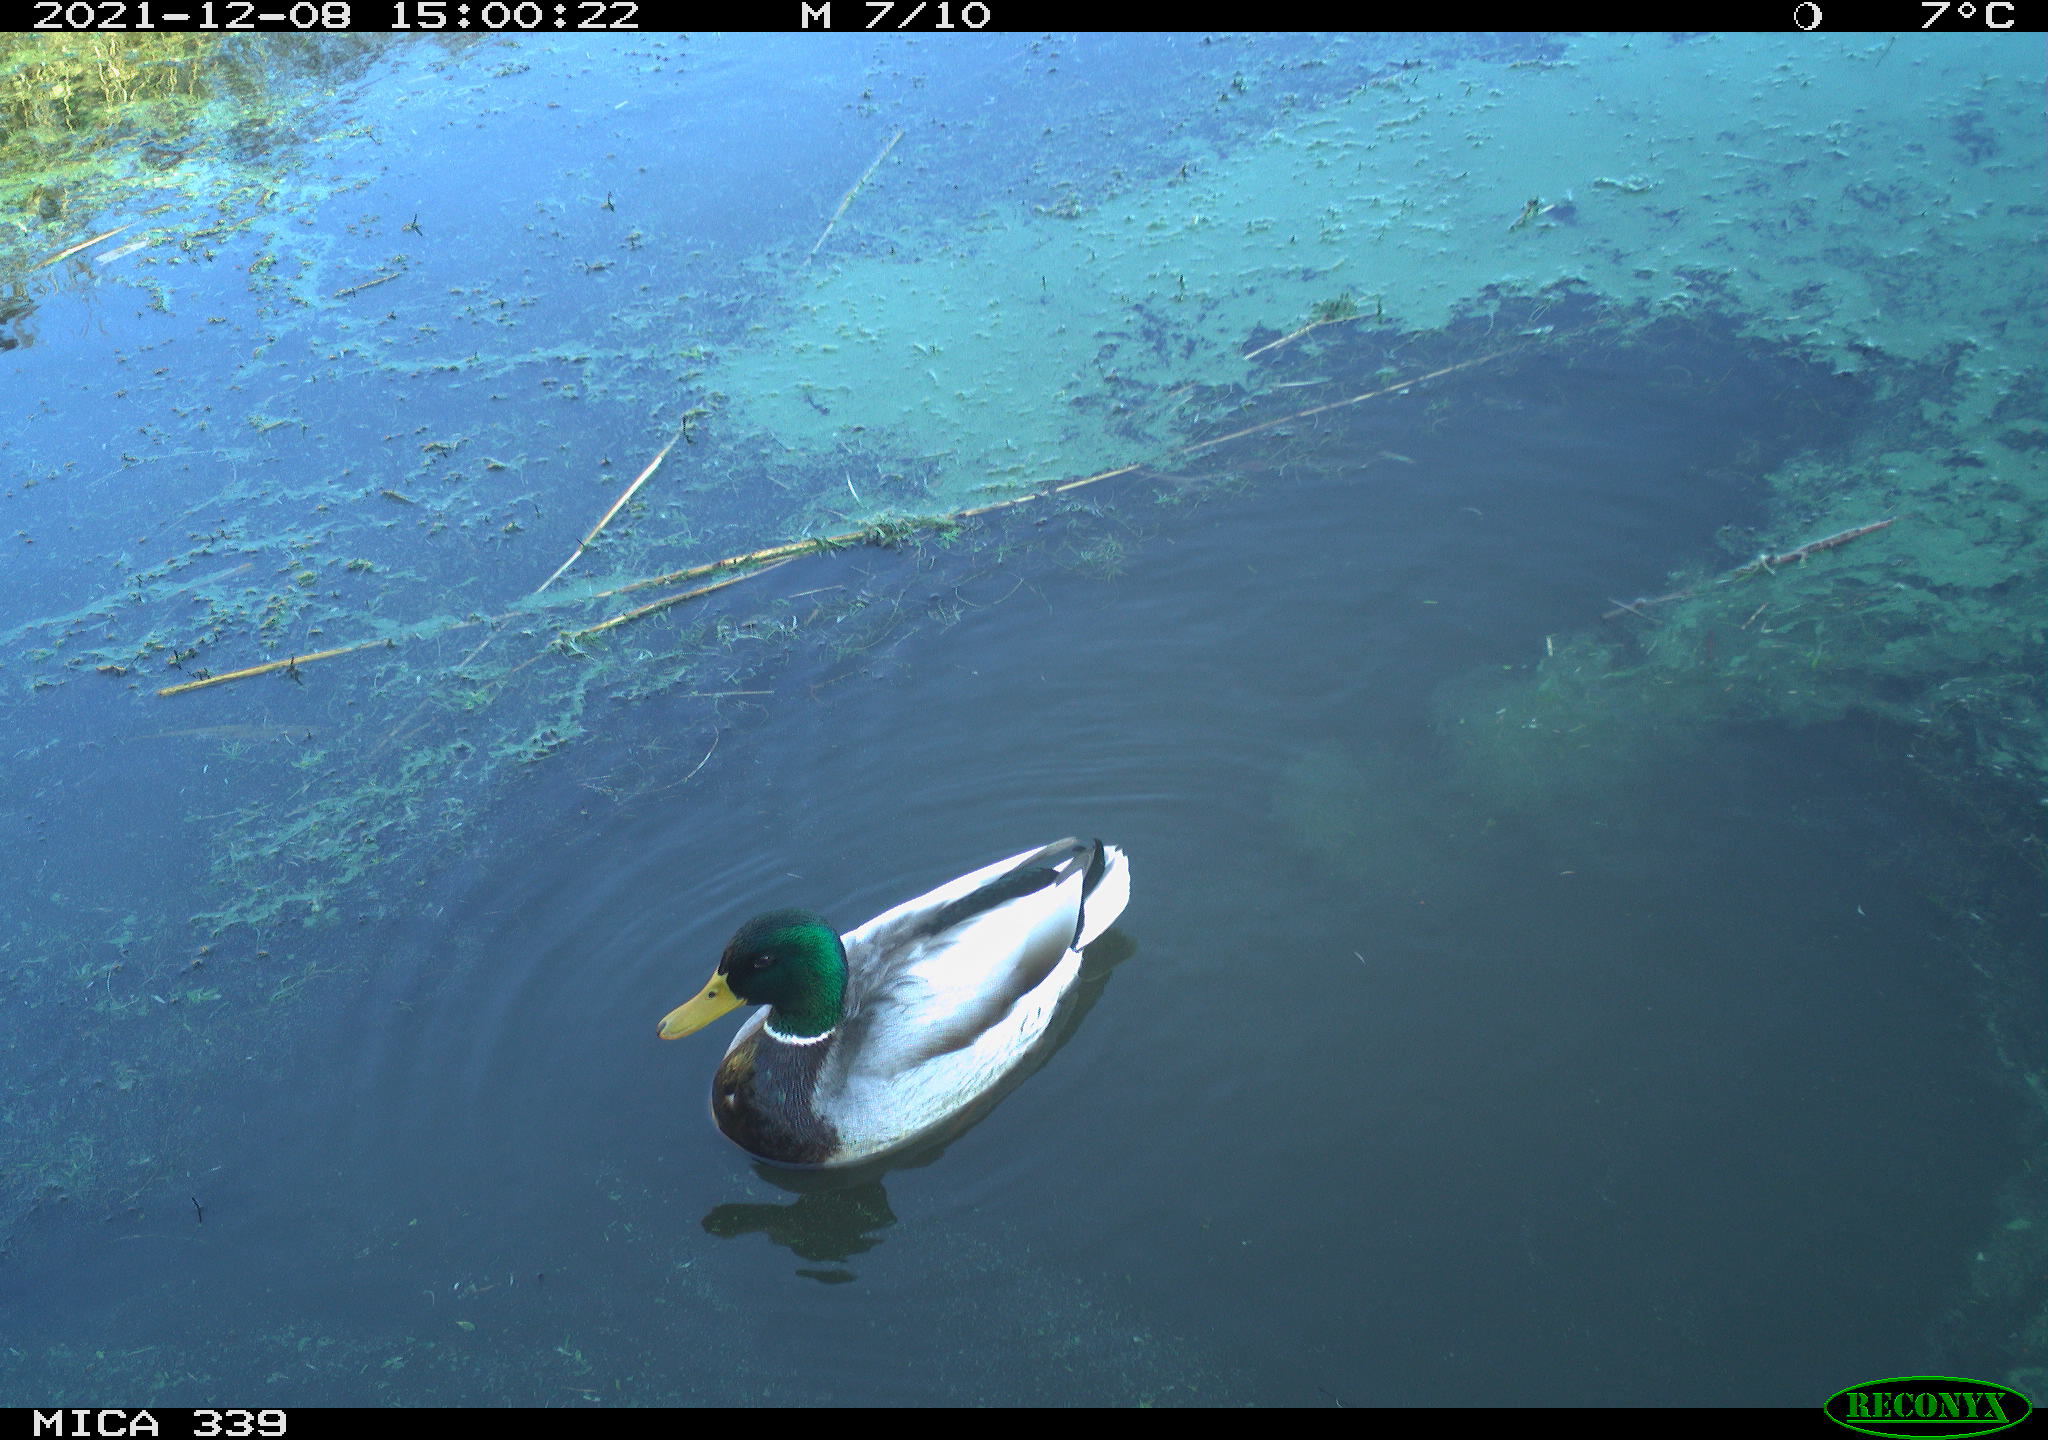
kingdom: Animalia
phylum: Chordata
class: Aves
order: Anseriformes
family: Anatidae
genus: Anas
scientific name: Anas platyrhynchos
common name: Mallard
